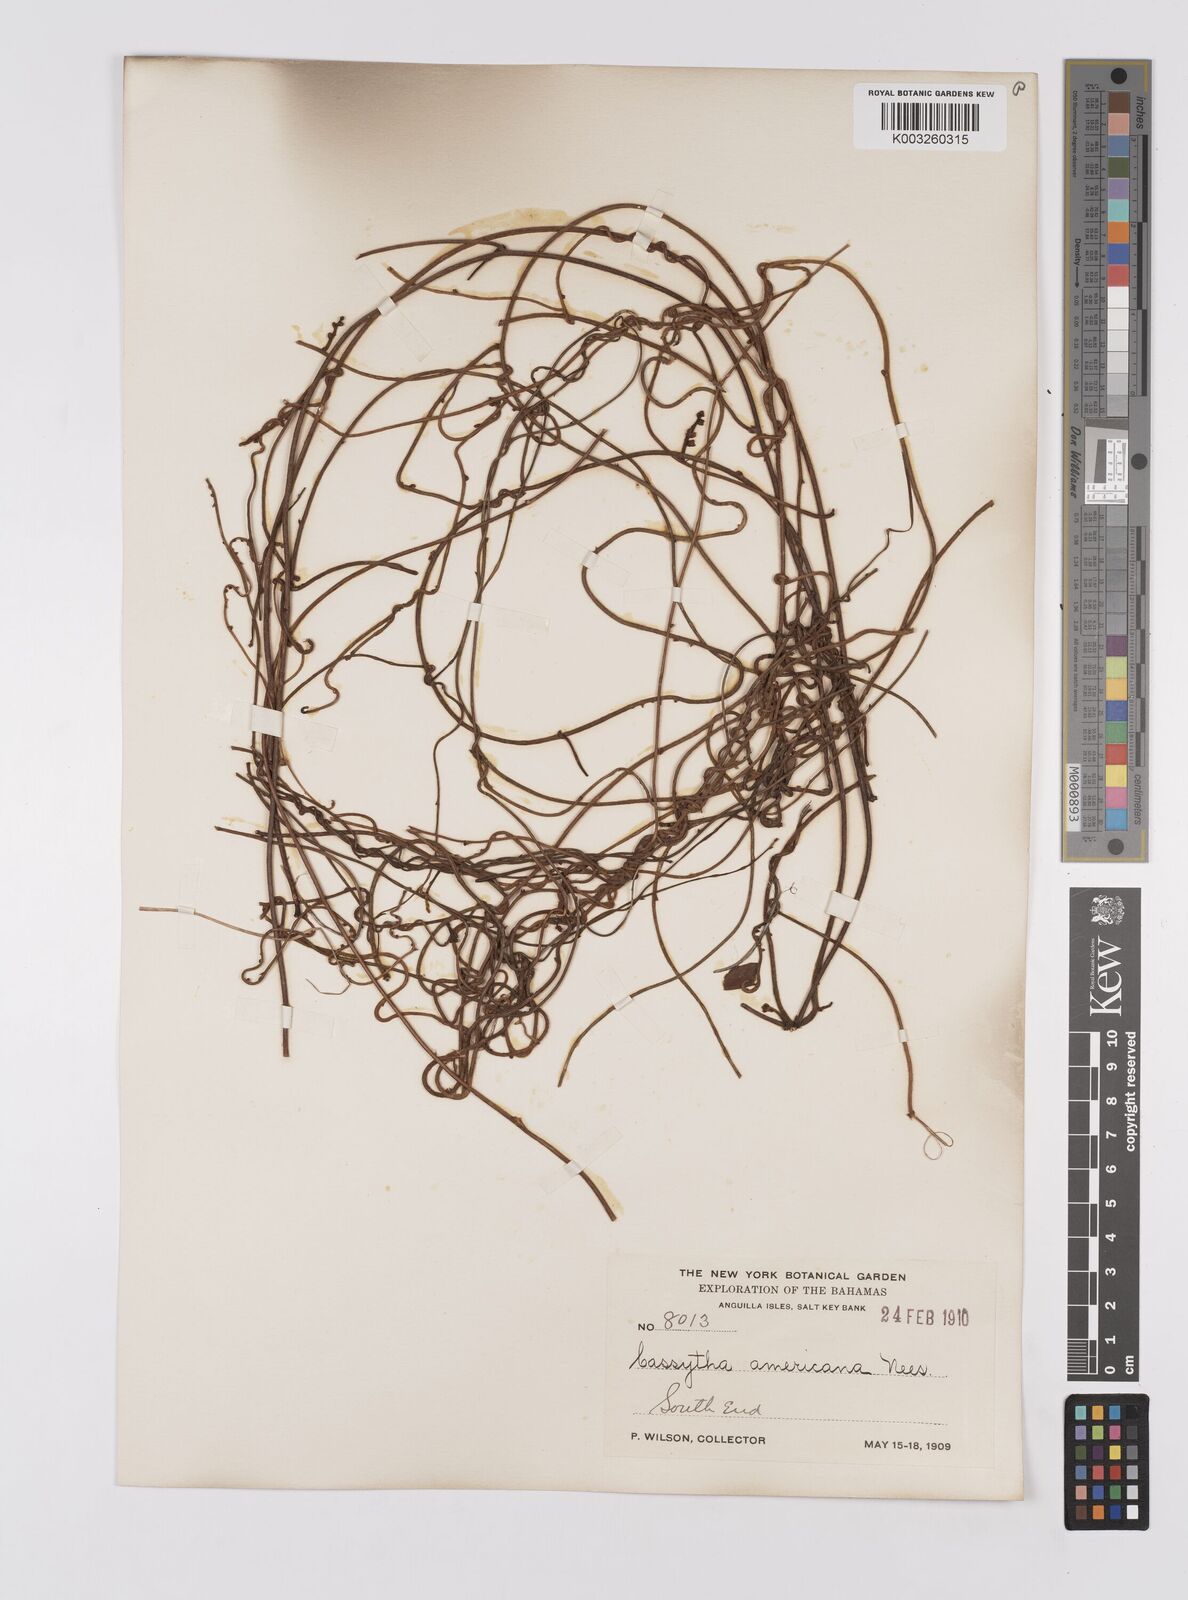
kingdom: Plantae
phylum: Tracheophyta
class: Magnoliopsida
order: Laurales
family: Lauraceae
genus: Cassytha
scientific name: Cassytha filiformis
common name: Dodder-laurel
